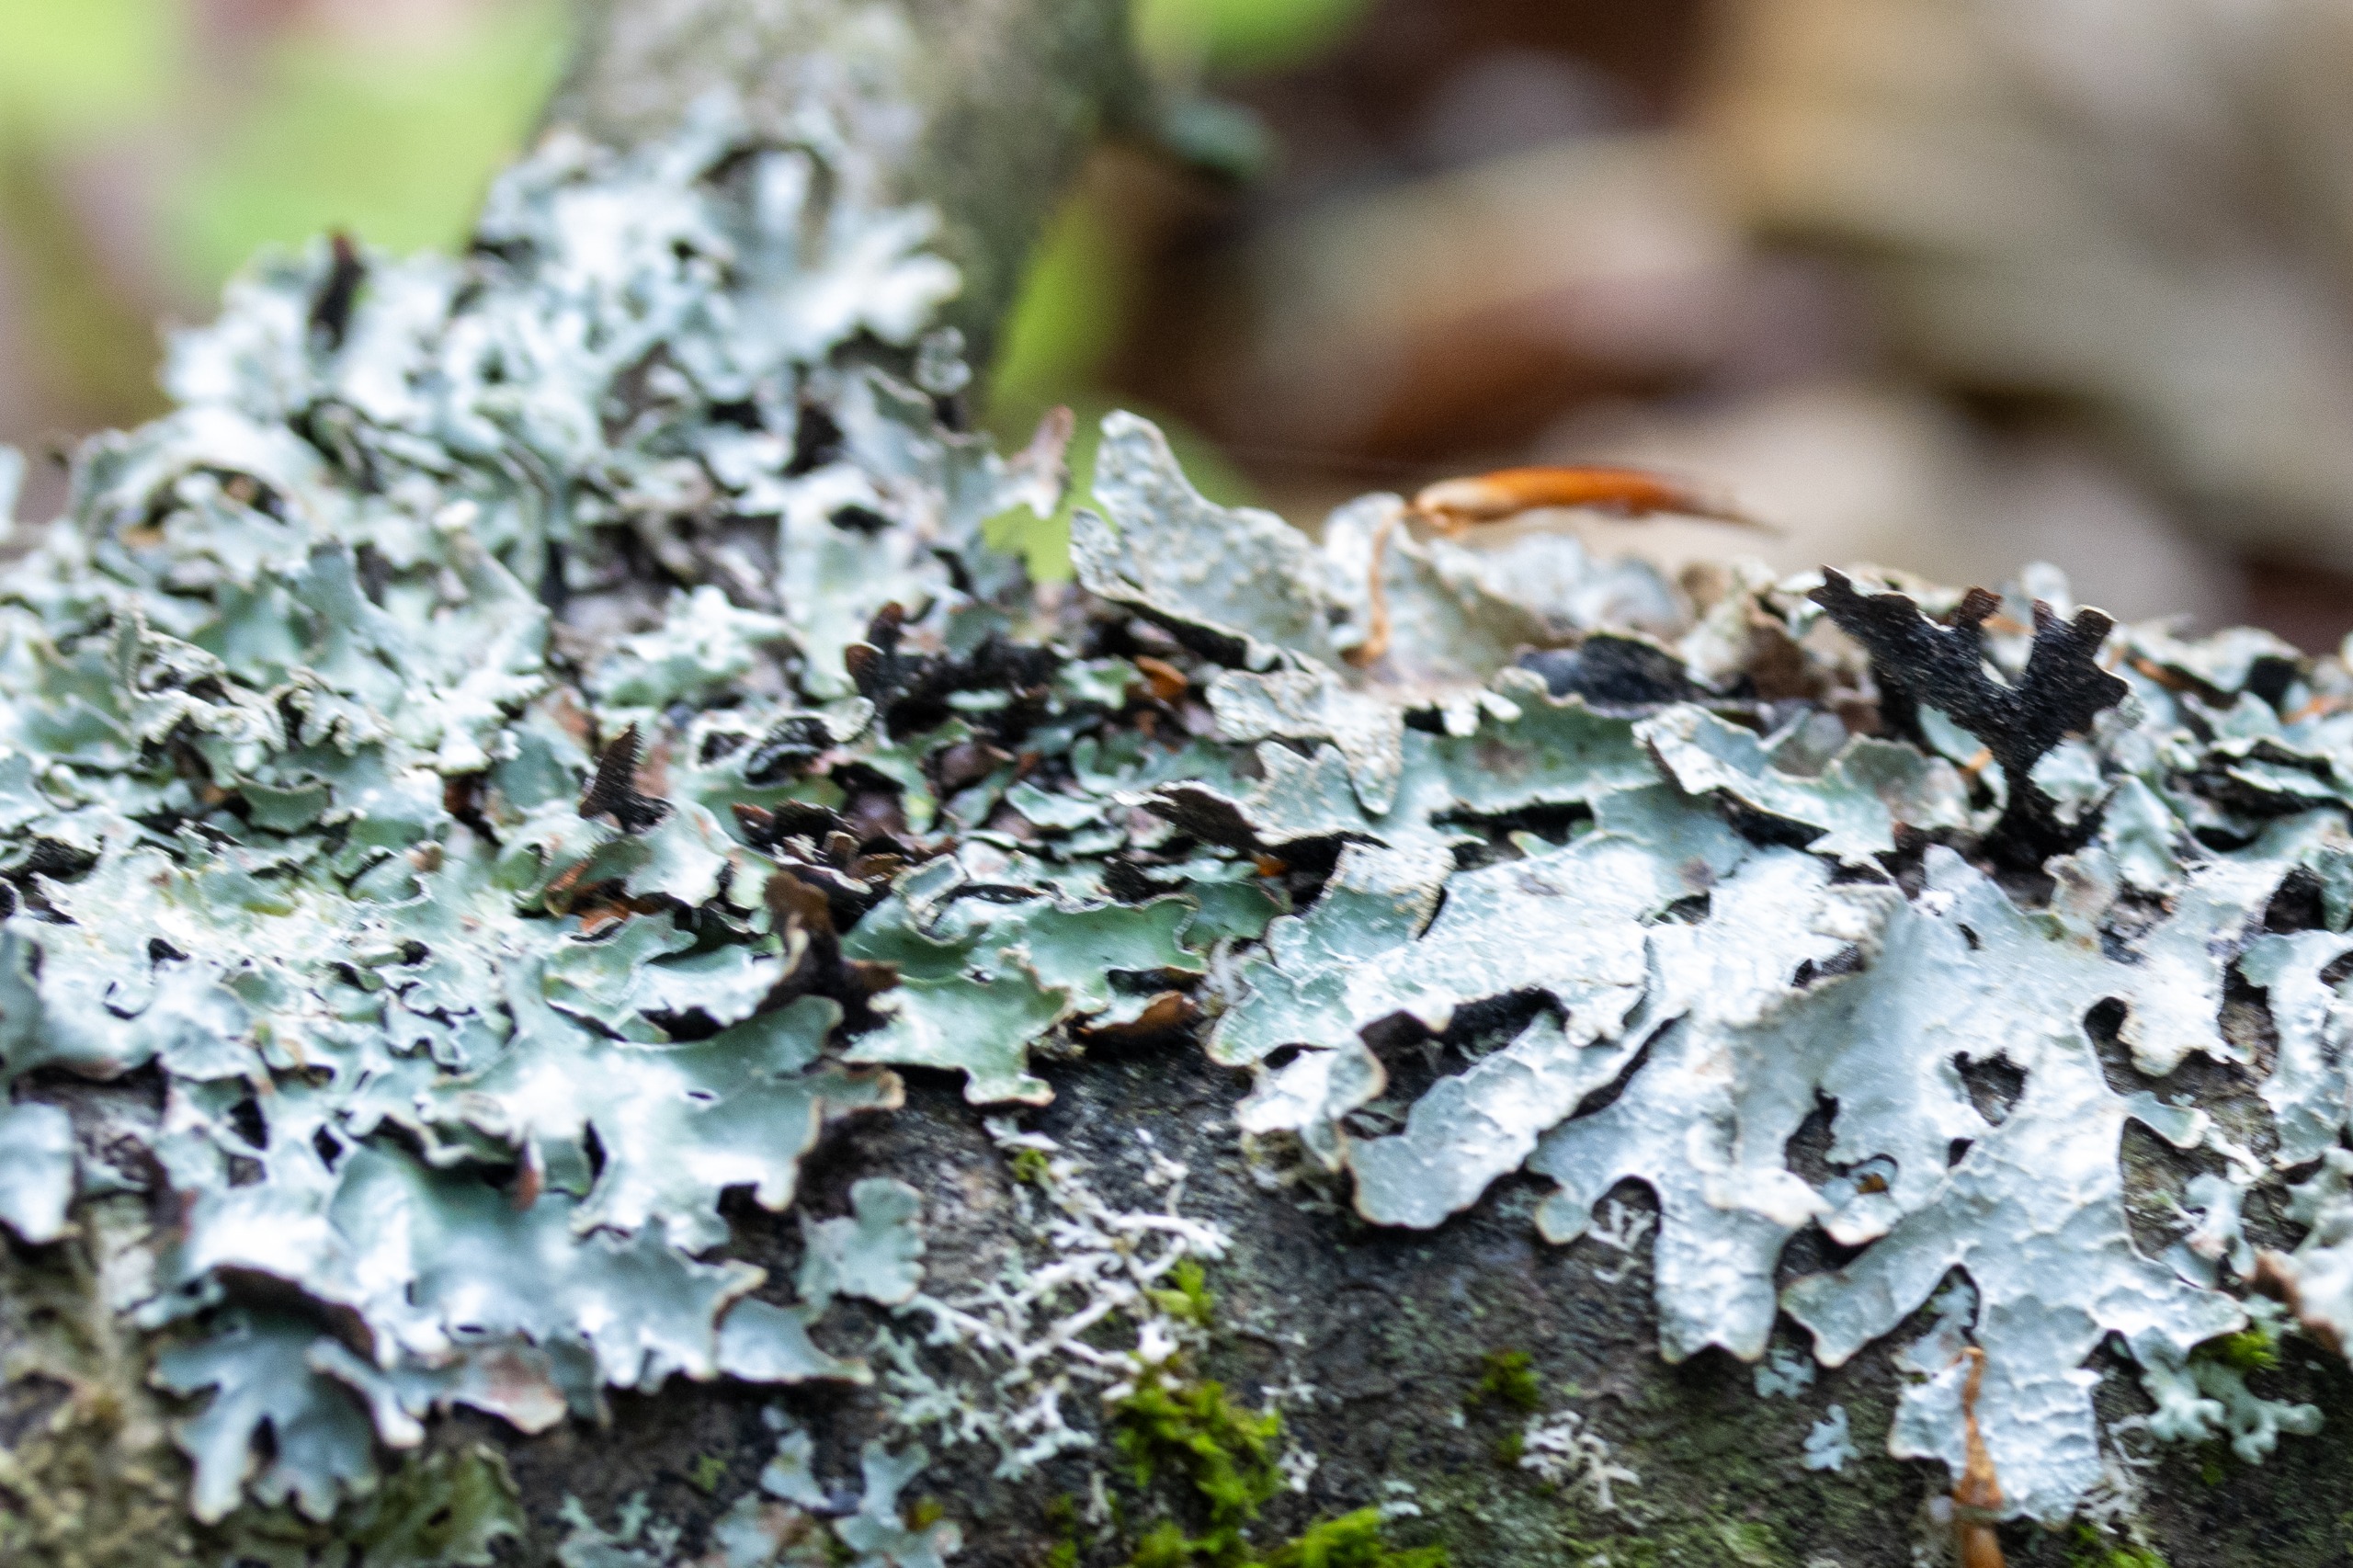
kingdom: Fungi
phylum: Ascomycota
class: Lecanoromycetes
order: Lecanorales
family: Parmeliaceae
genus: Parmelia
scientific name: Parmelia sulcata
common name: Rynket skållav
